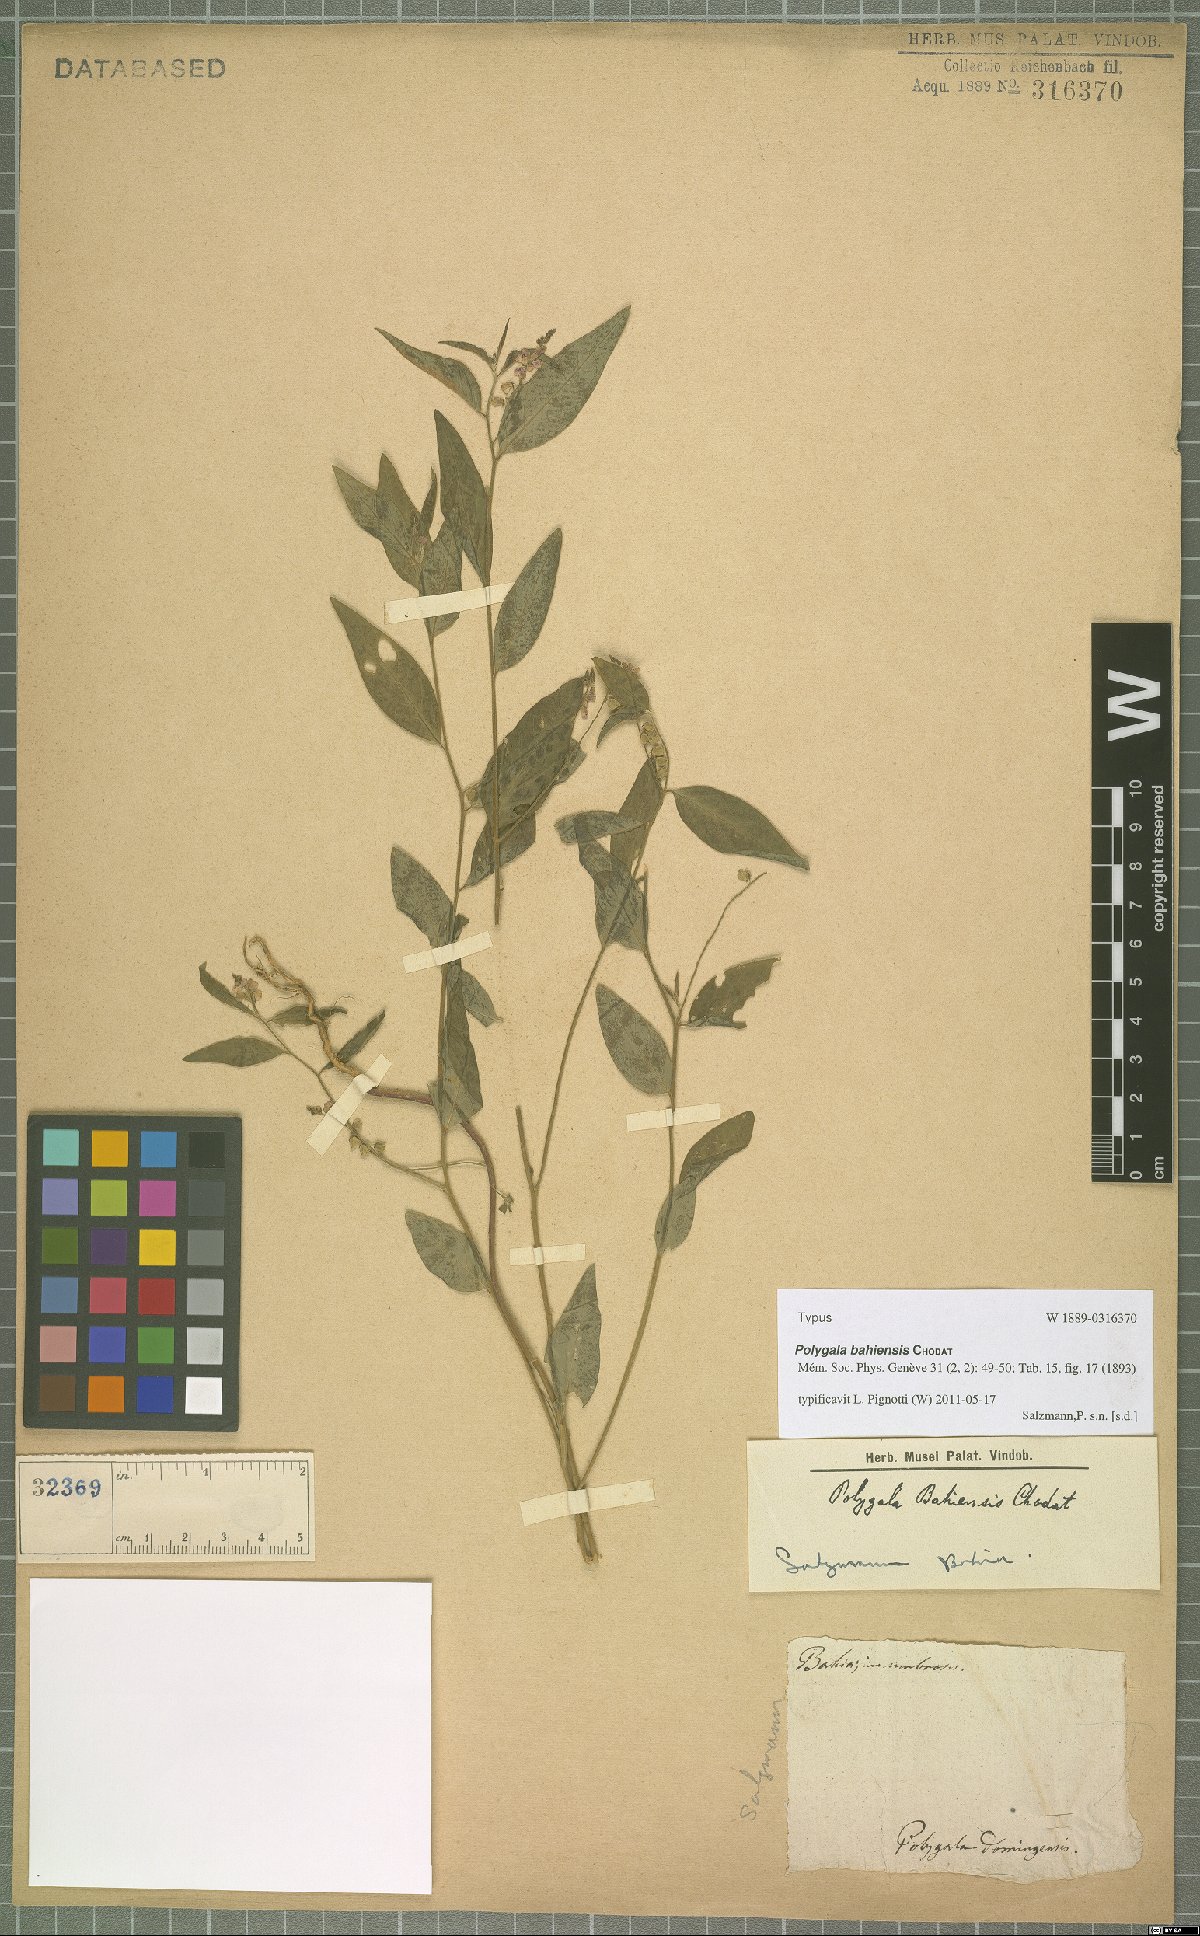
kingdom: Plantae
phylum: Tracheophyta
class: Magnoliopsida
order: Fabales
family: Polygalaceae
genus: Asemeia
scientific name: Asemeia violacea
